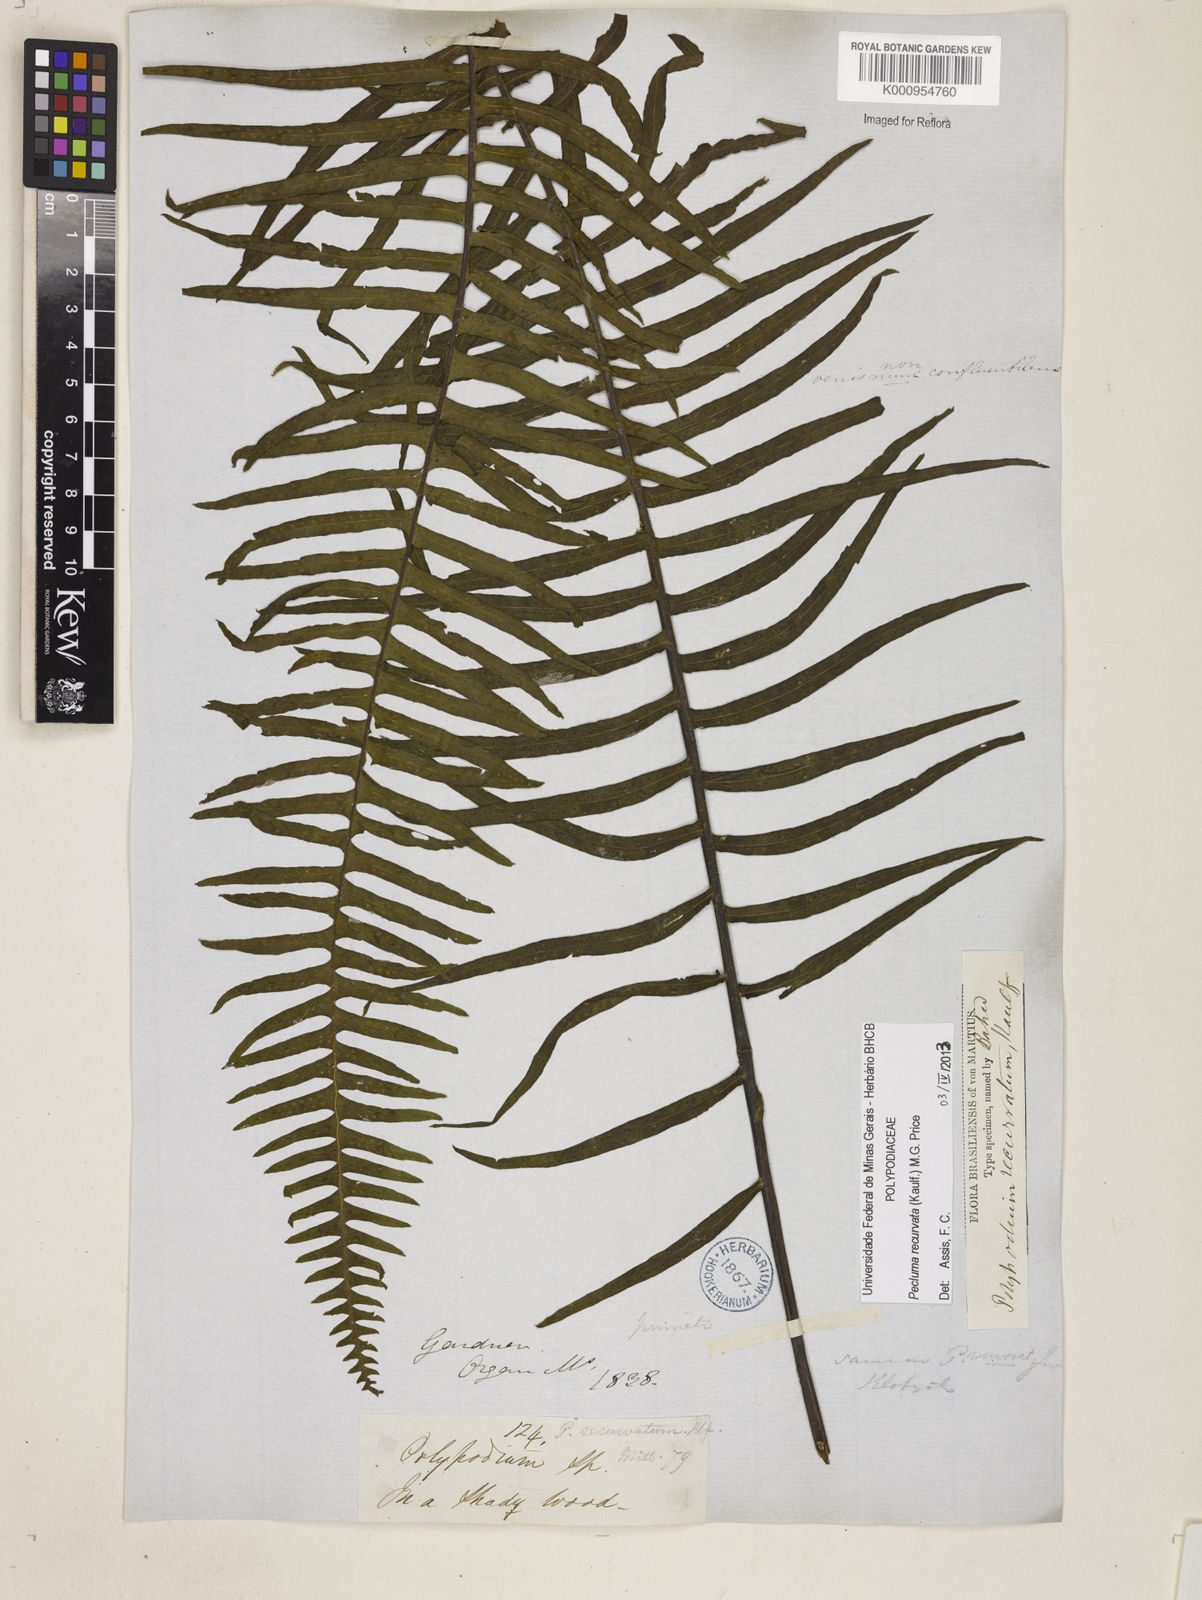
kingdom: Plantae
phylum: Tracheophyta
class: Polypodiopsida
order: Polypodiales
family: Polypodiaceae
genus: Pecluma
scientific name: Pecluma recurvata
